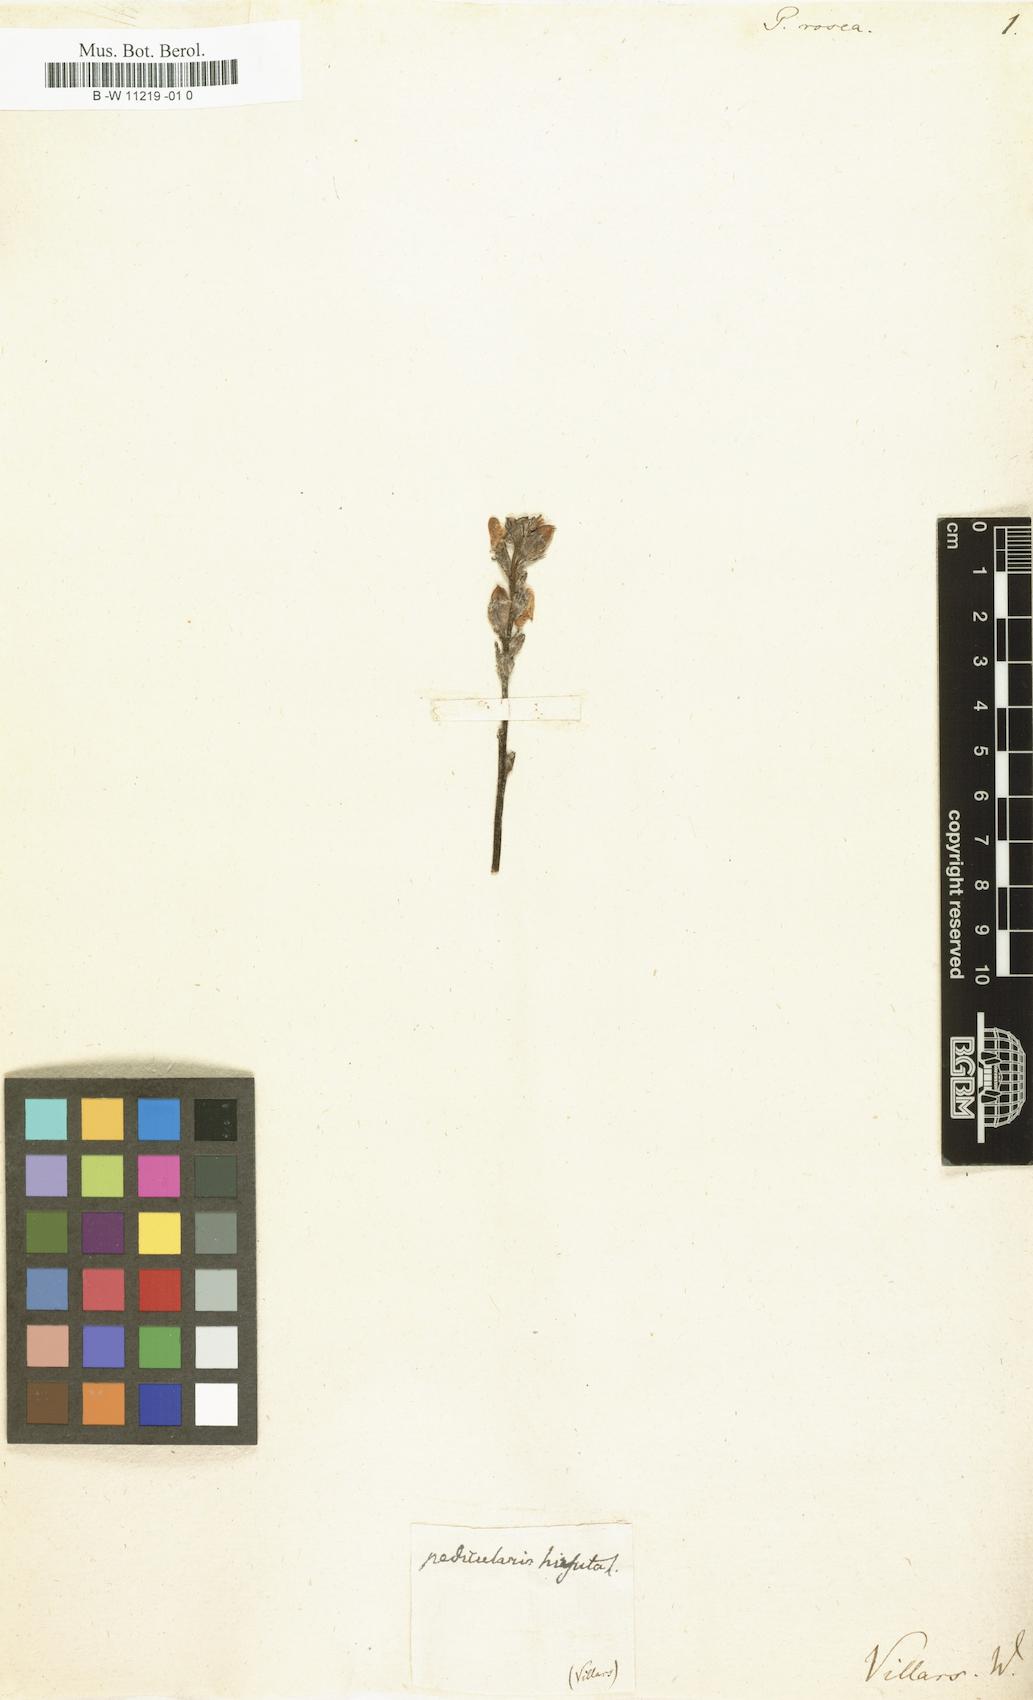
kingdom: Plantae
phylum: Tracheophyta
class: Magnoliopsida
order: Lamiales
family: Orobanchaceae
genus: Pedicularis
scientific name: Pedicularis rosea
